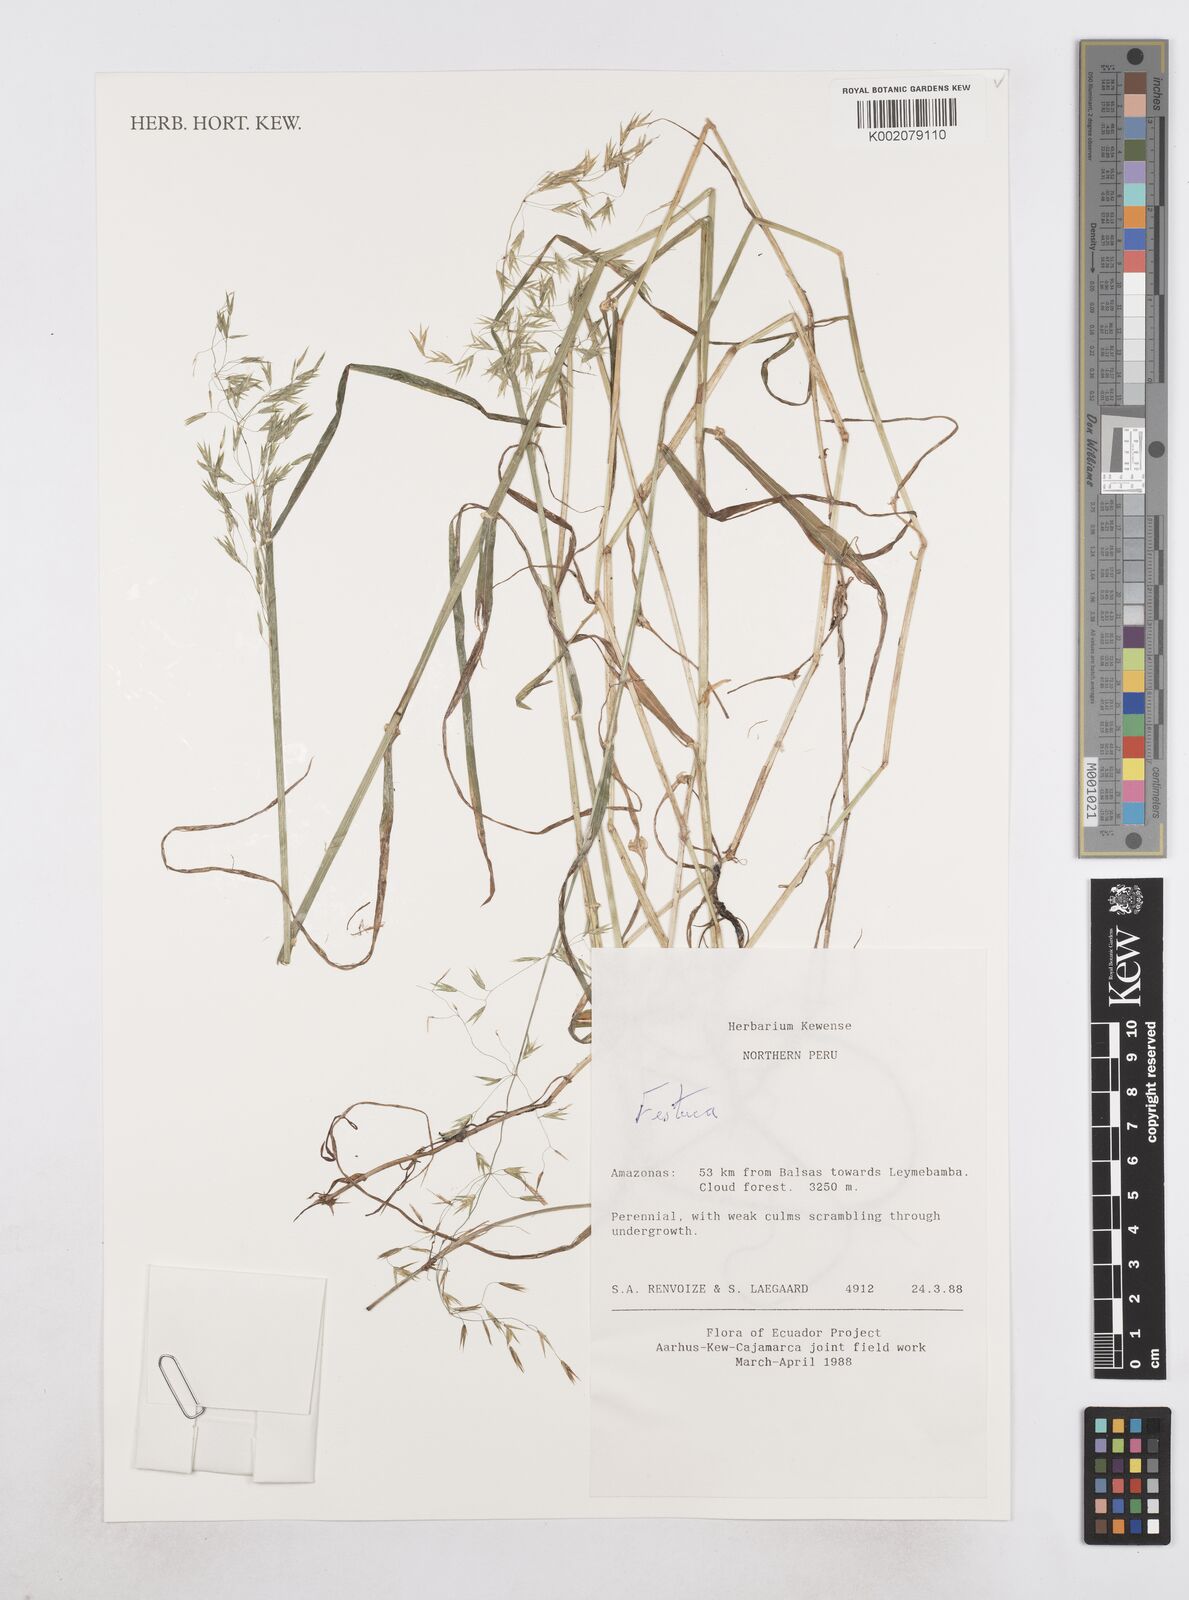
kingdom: Plantae
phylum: Tracheophyta
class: Liliopsida
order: Poales
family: Poaceae
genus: Poa
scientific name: Poa hitchcockiana
